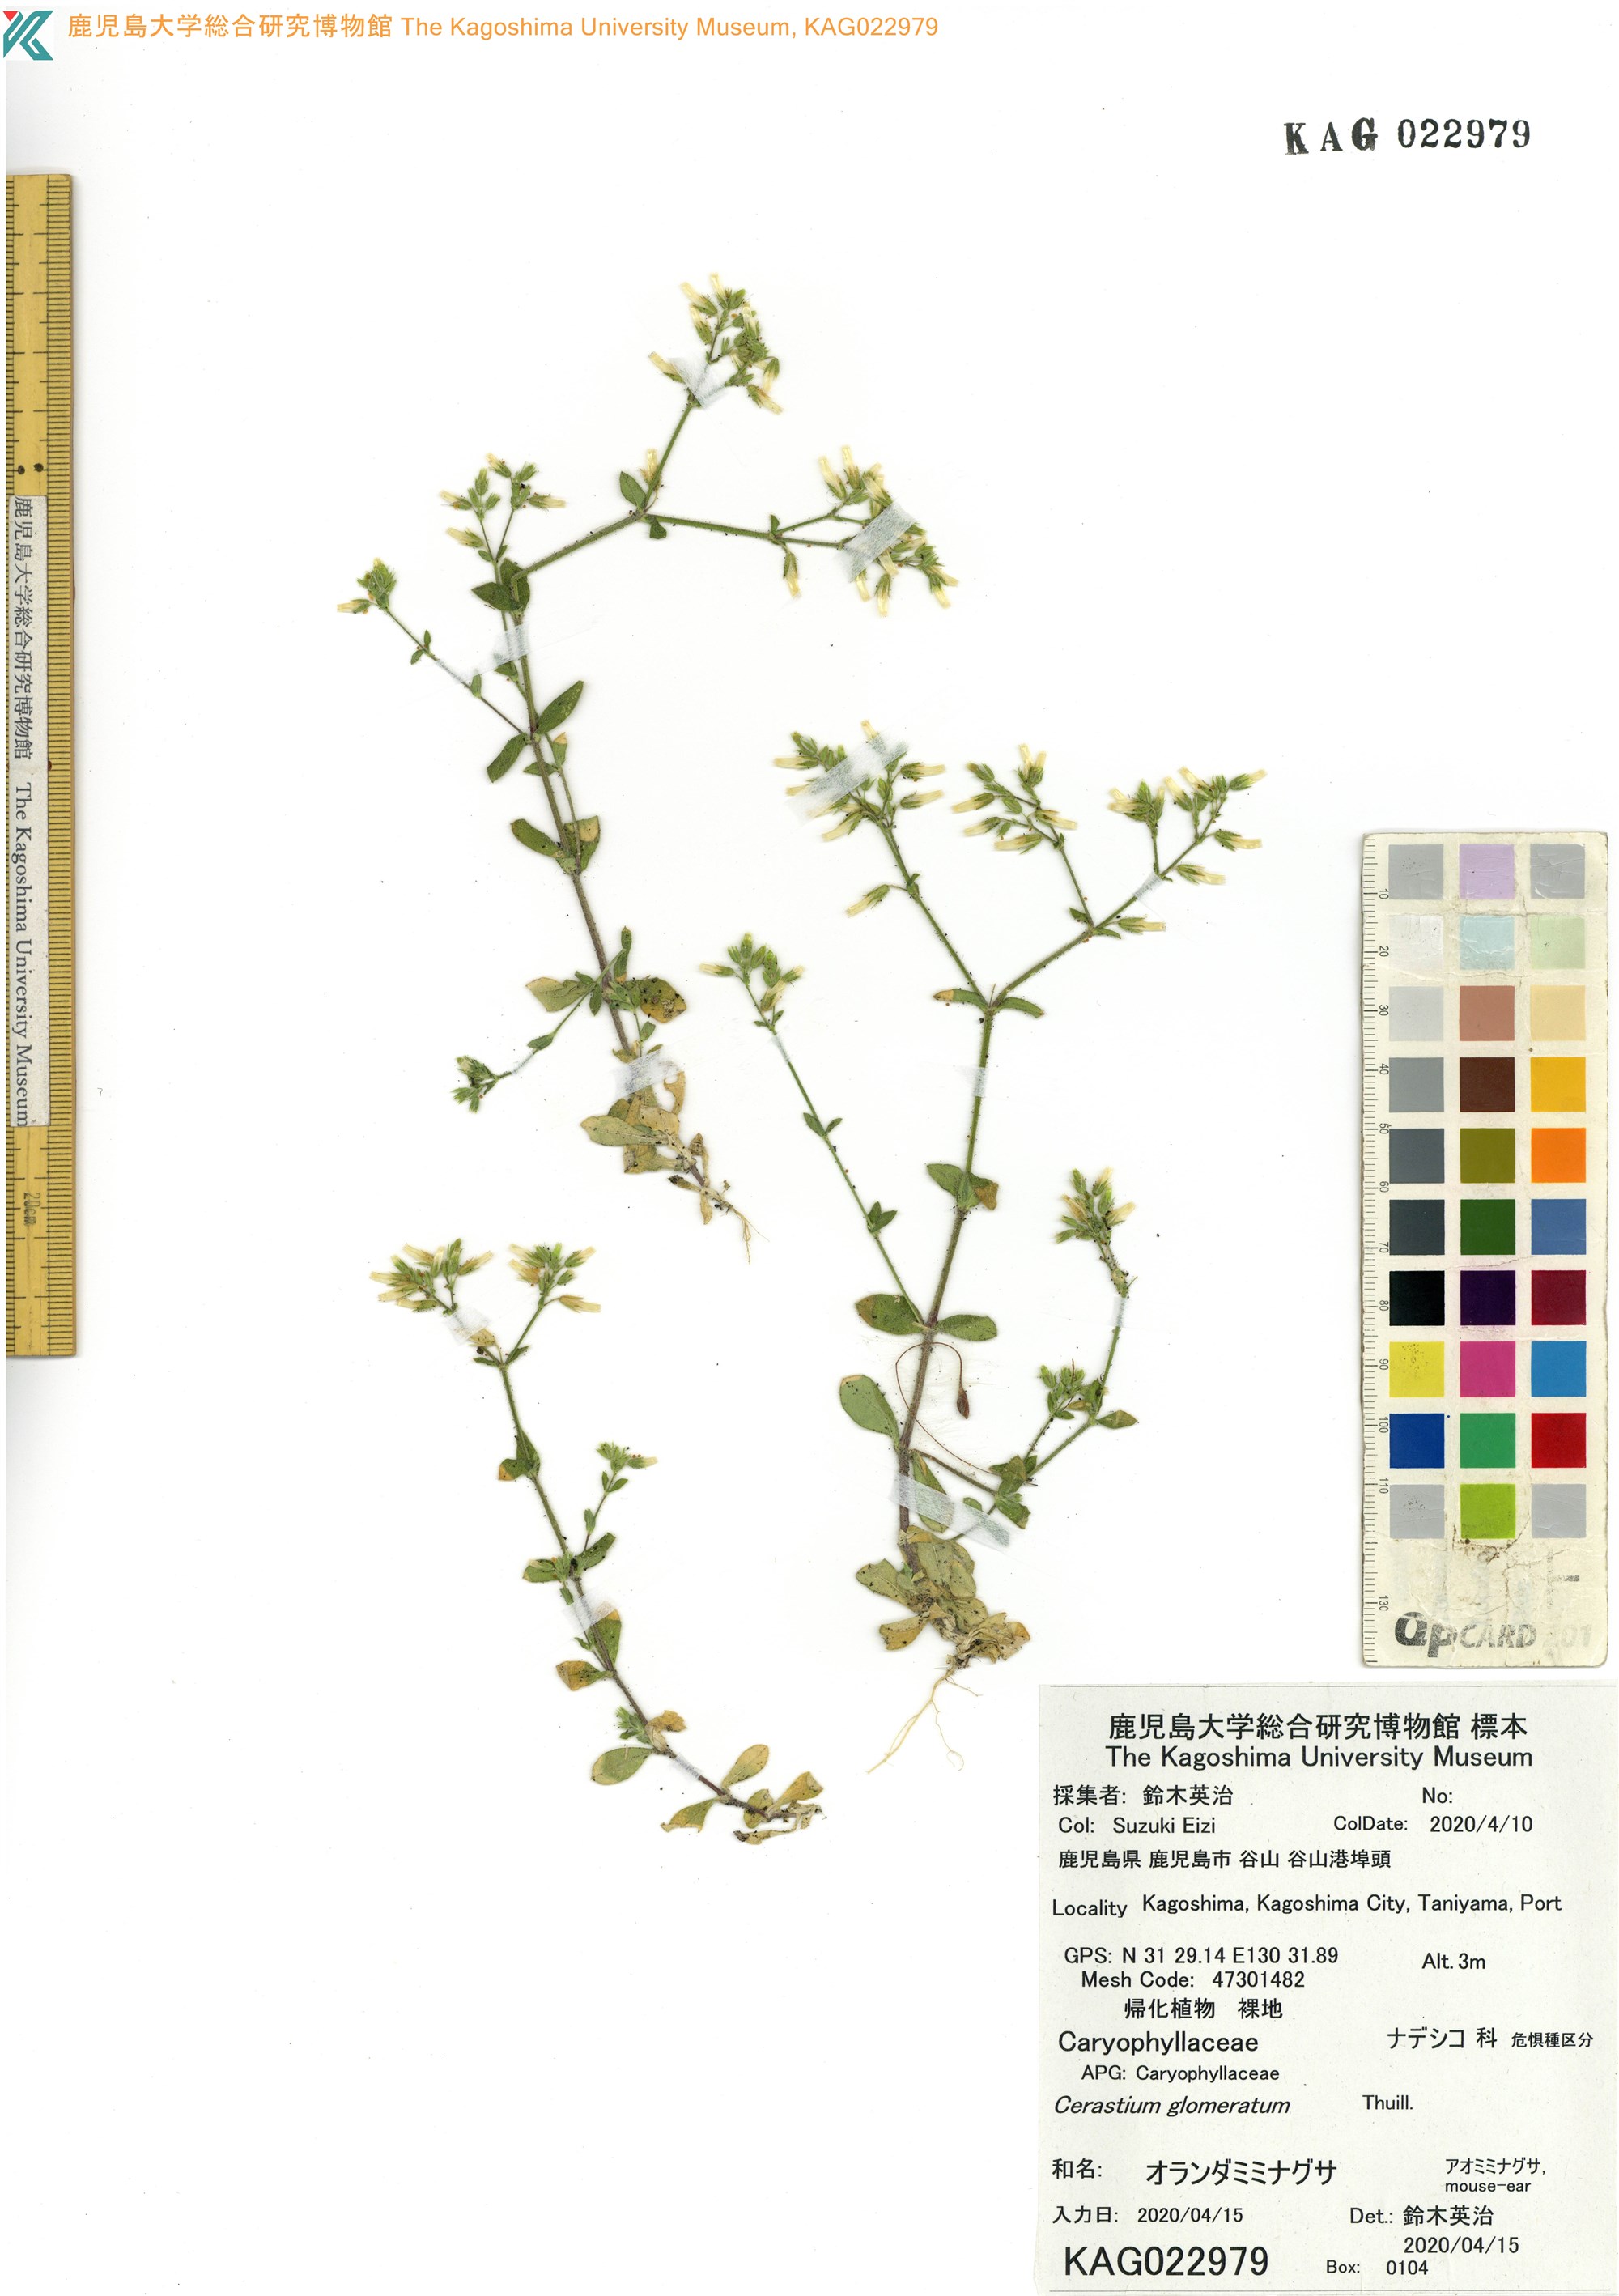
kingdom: Plantae
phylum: Tracheophyta
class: Magnoliopsida
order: Caryophyllales
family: Caryophyllaceae
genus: Cerastium
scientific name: Cerastium glomeratum
